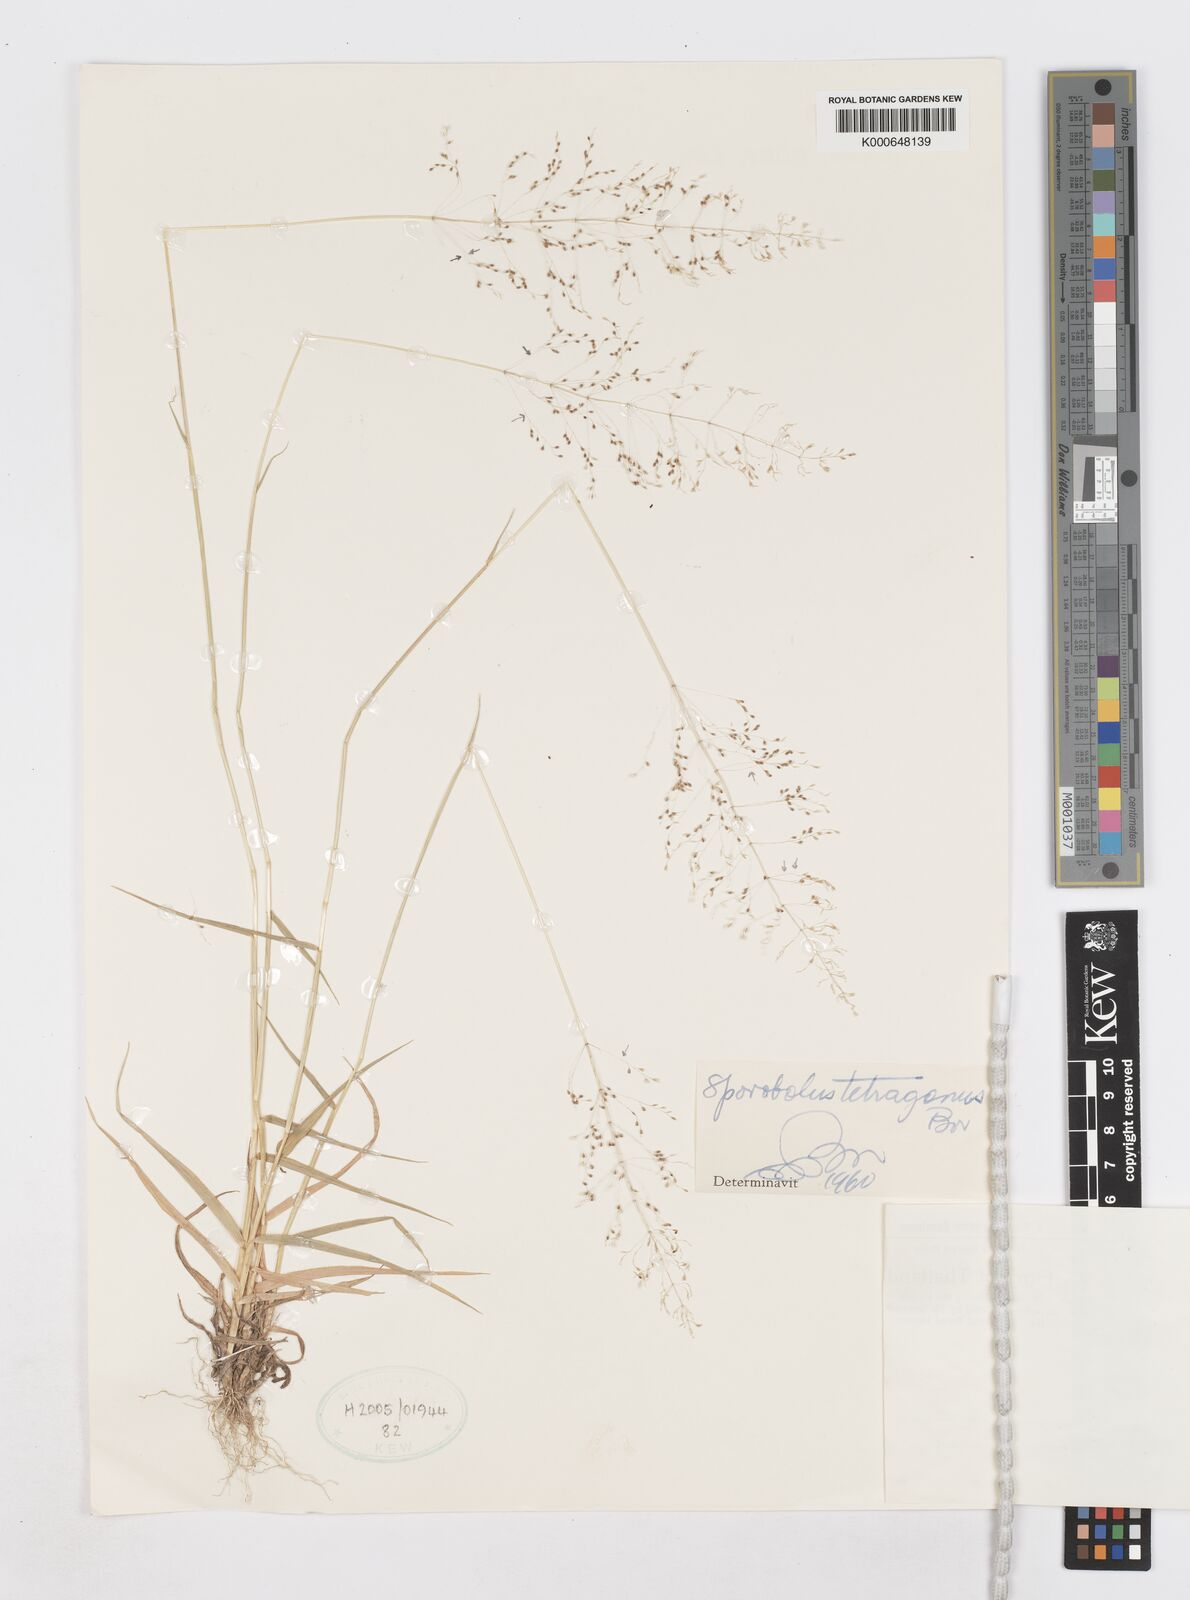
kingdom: Plantae
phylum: Tracheophyta
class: Liliopsida
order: Poales
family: Poaceae
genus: Sporobolus
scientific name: Sporobolus tetragonus
